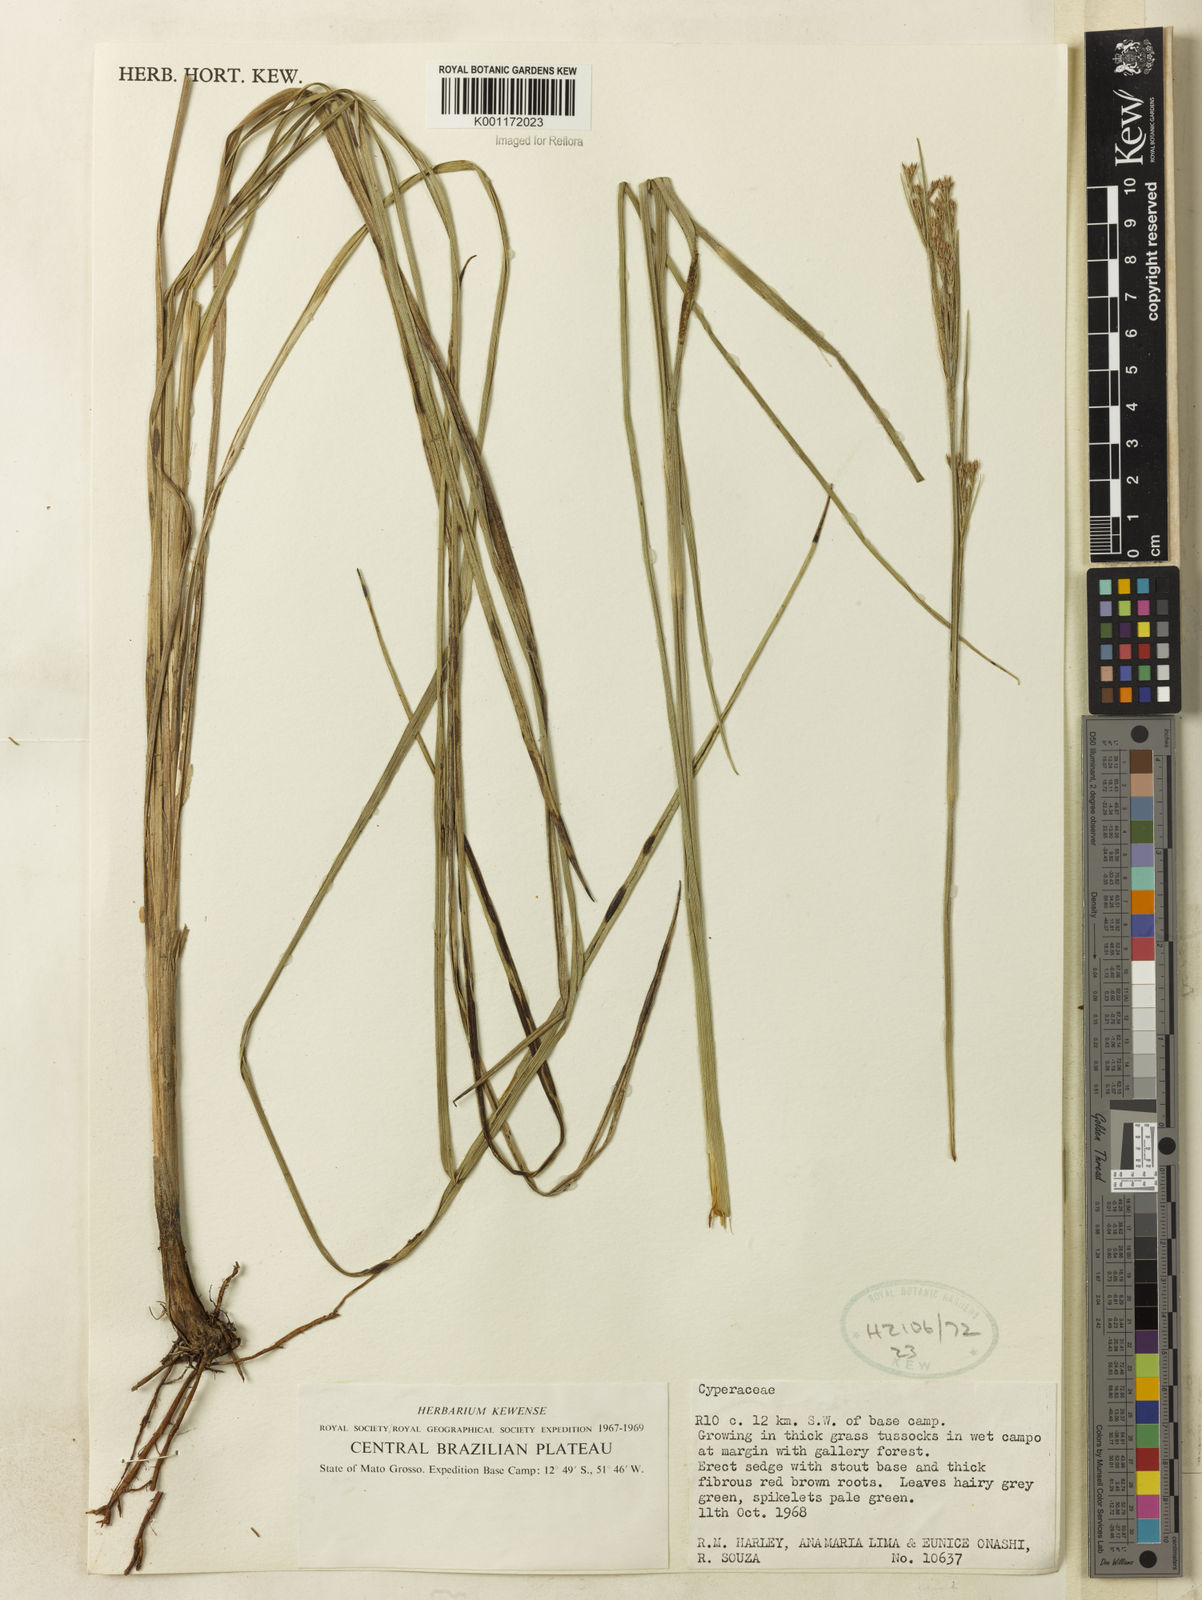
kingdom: Plantae
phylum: Tracheophyta
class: Liliopsida
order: Poales
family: Cyperaceae
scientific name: Cyperaceae
